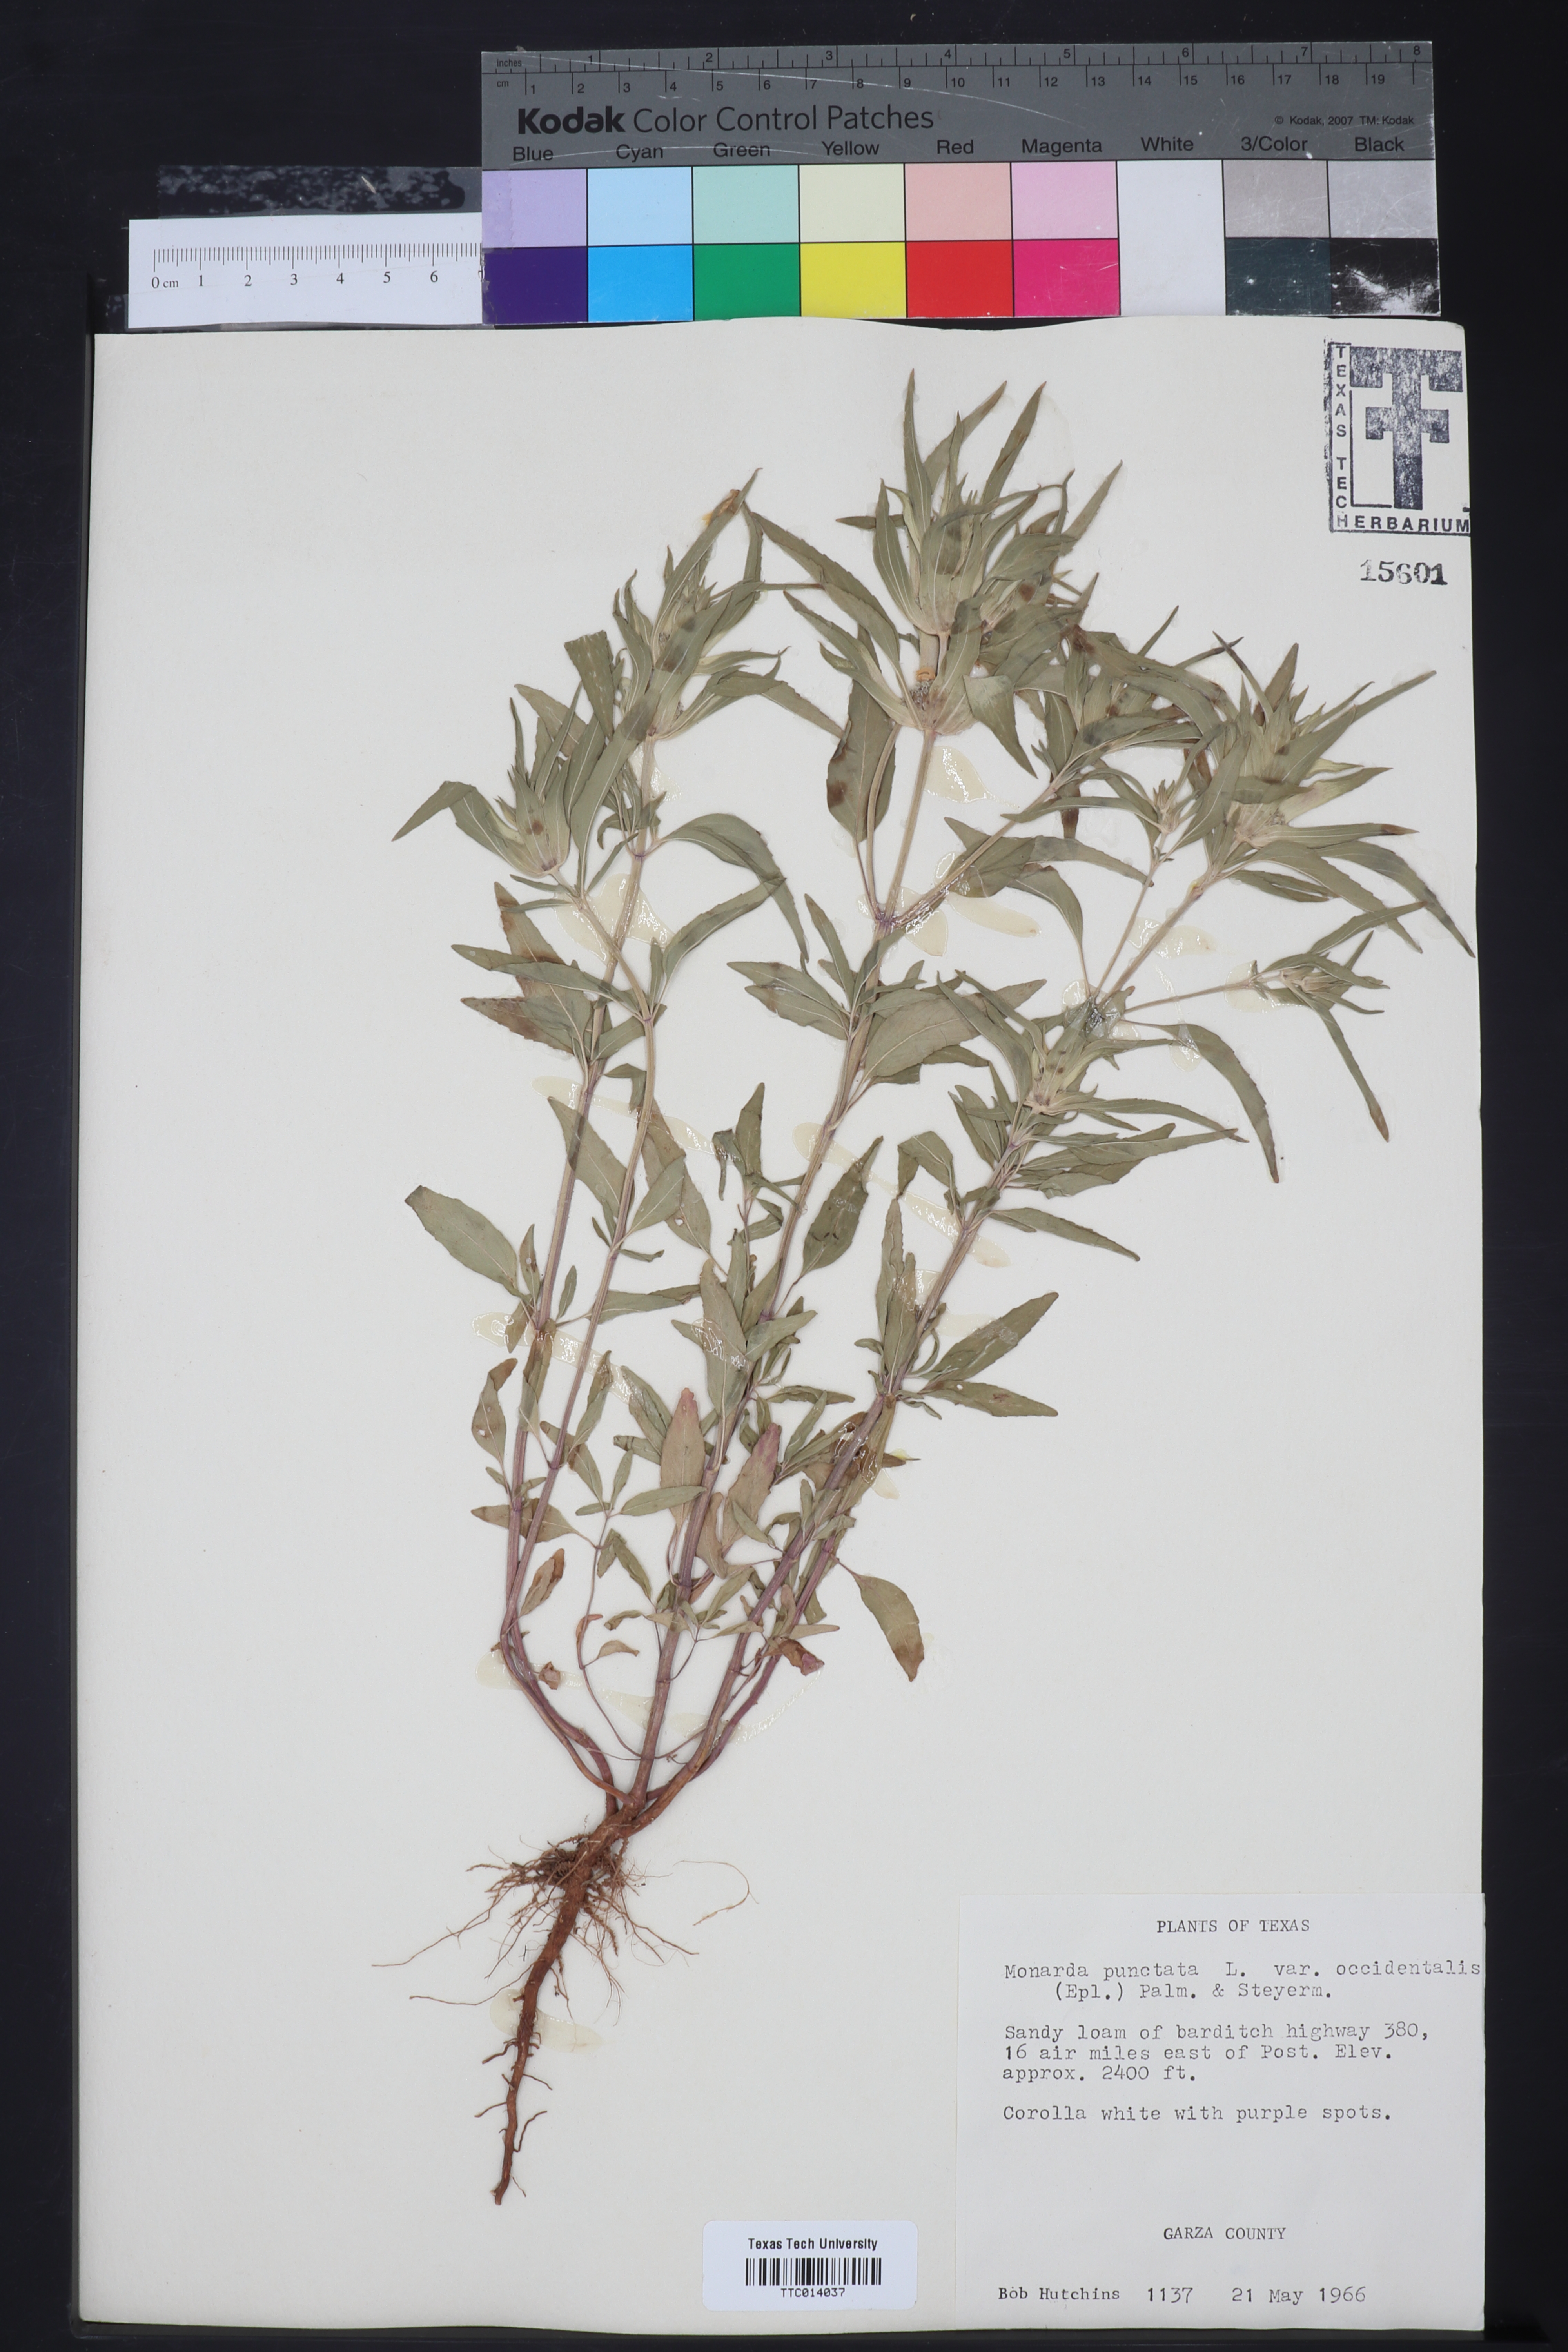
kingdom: Plantae
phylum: Tracheophyta
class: Magnoliopsida
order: Lamiales
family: Lamiaceae
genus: Monarda
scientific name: Monarda punctata
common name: Dotted monarda
